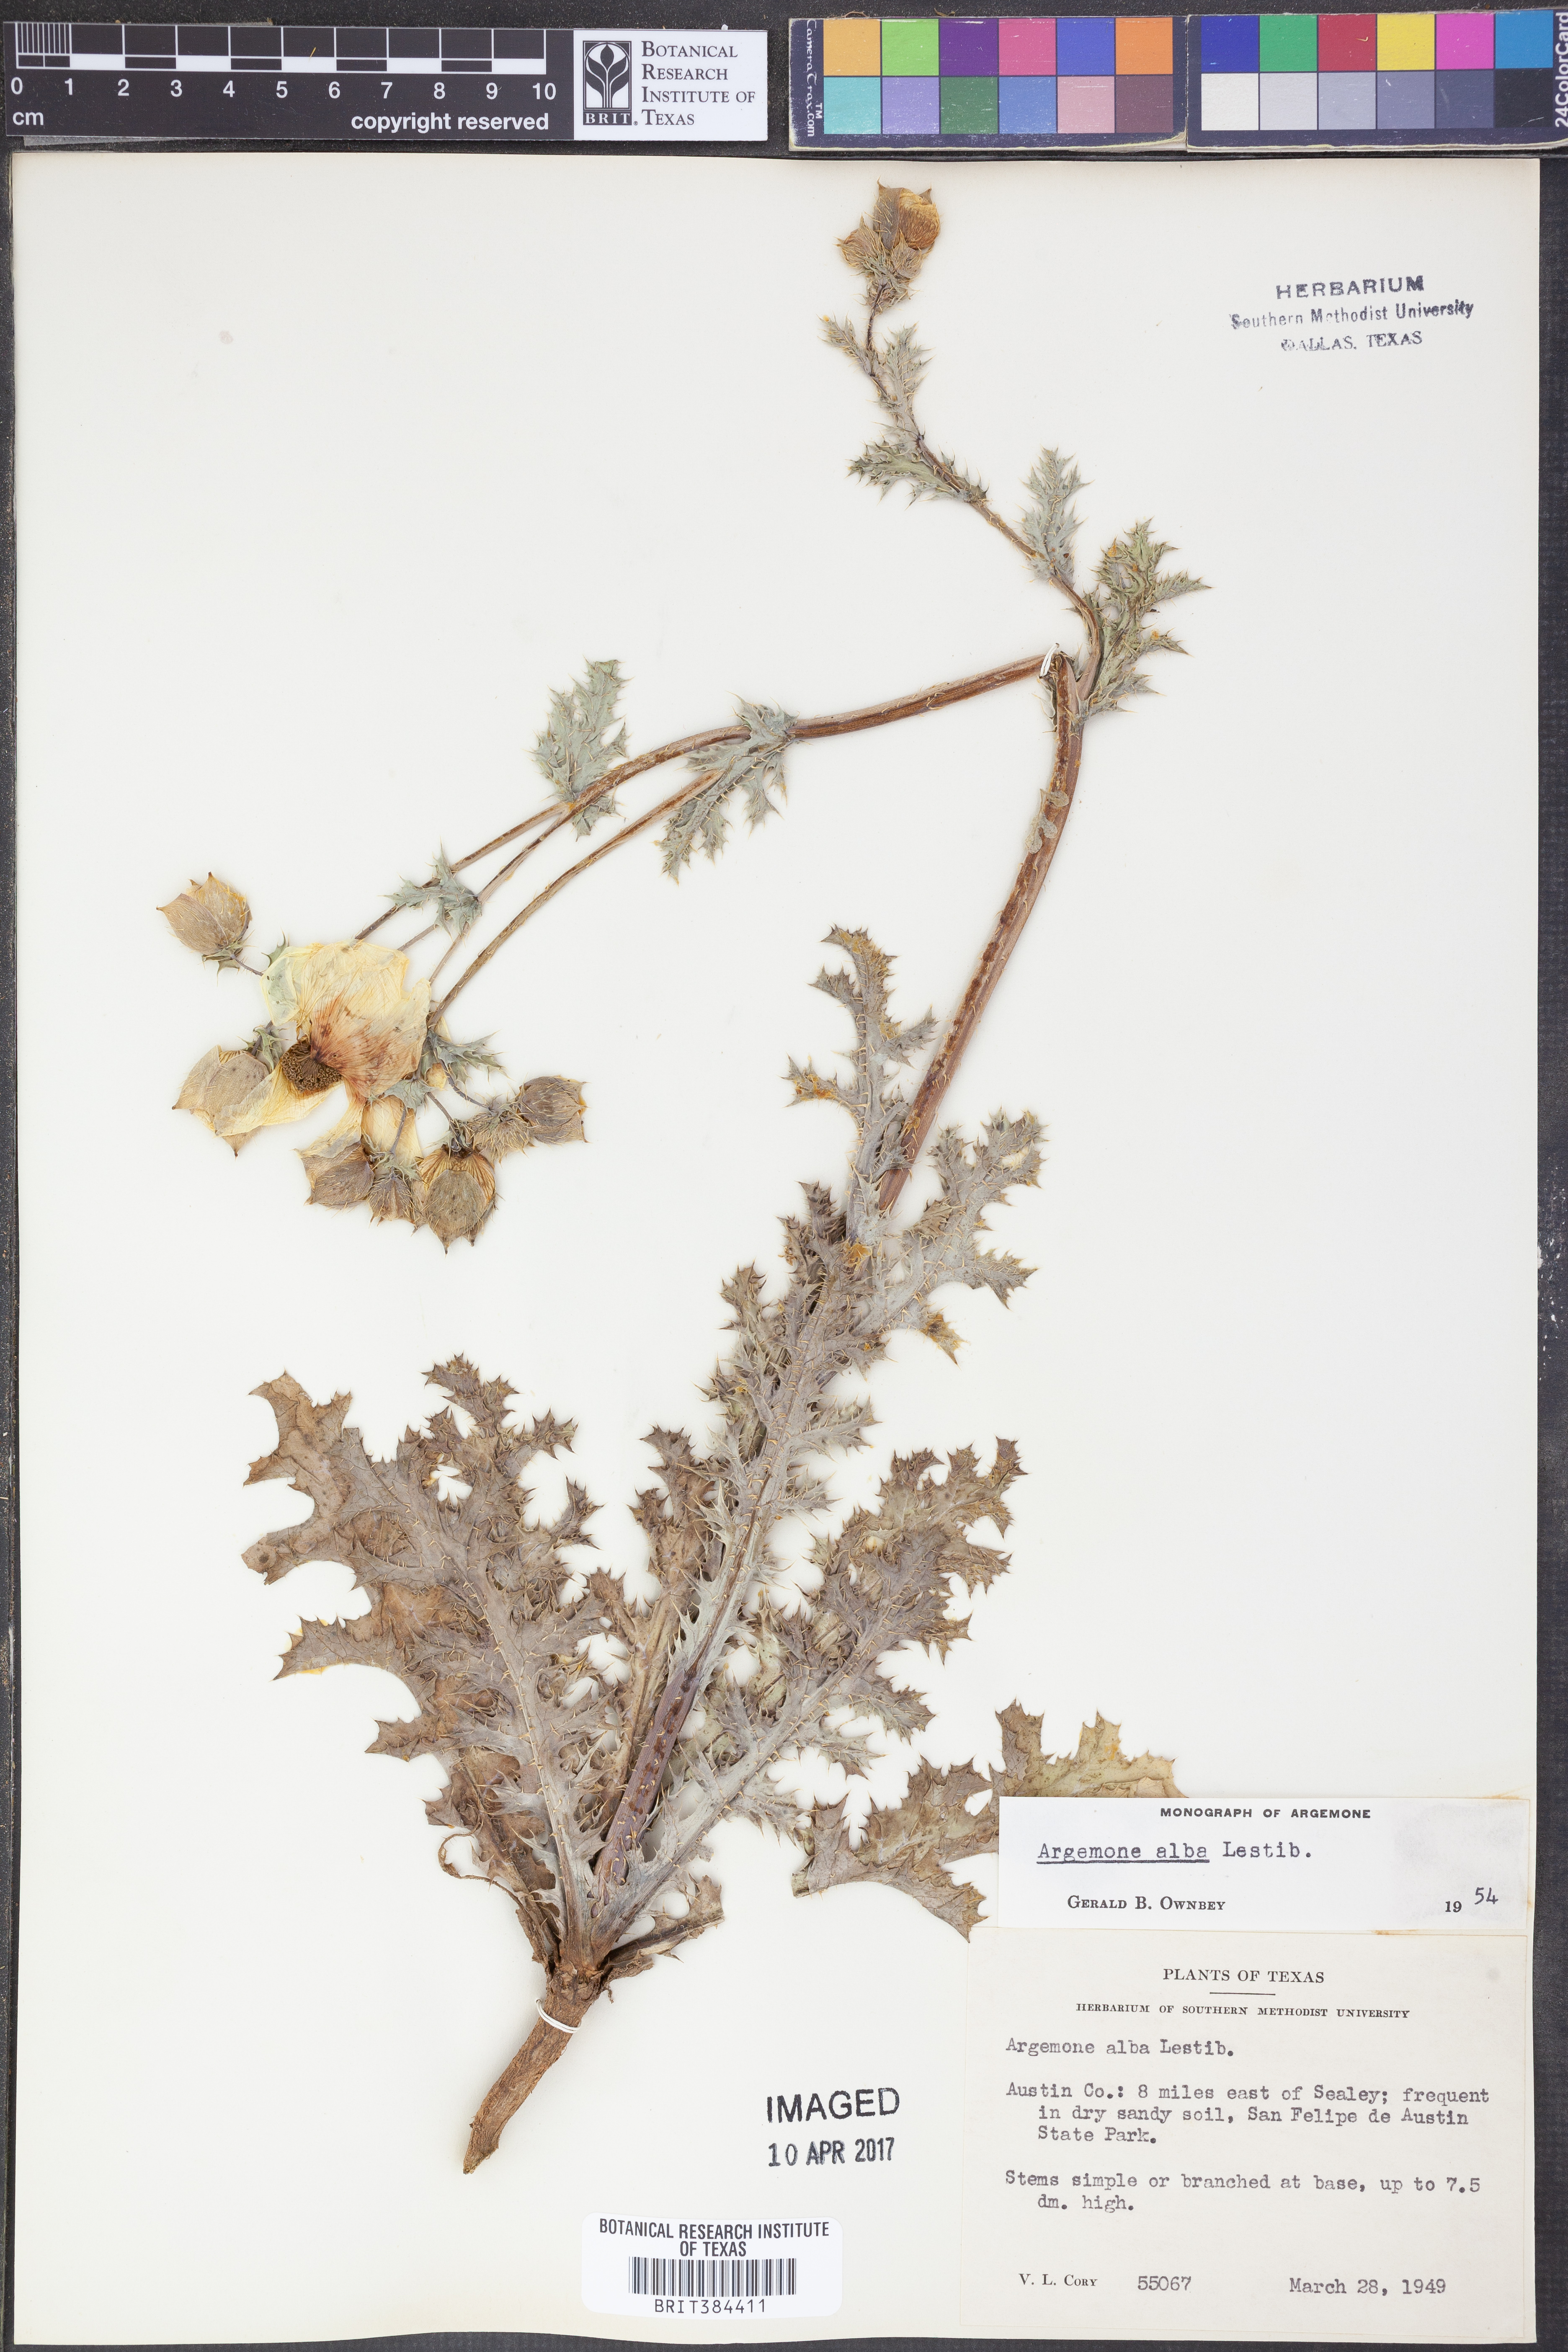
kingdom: Plantae
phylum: Tracheophyta
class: Magnoliopsida
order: Ranunculales
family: Papaveraceae
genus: Argemone
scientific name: Argemone albiflora
